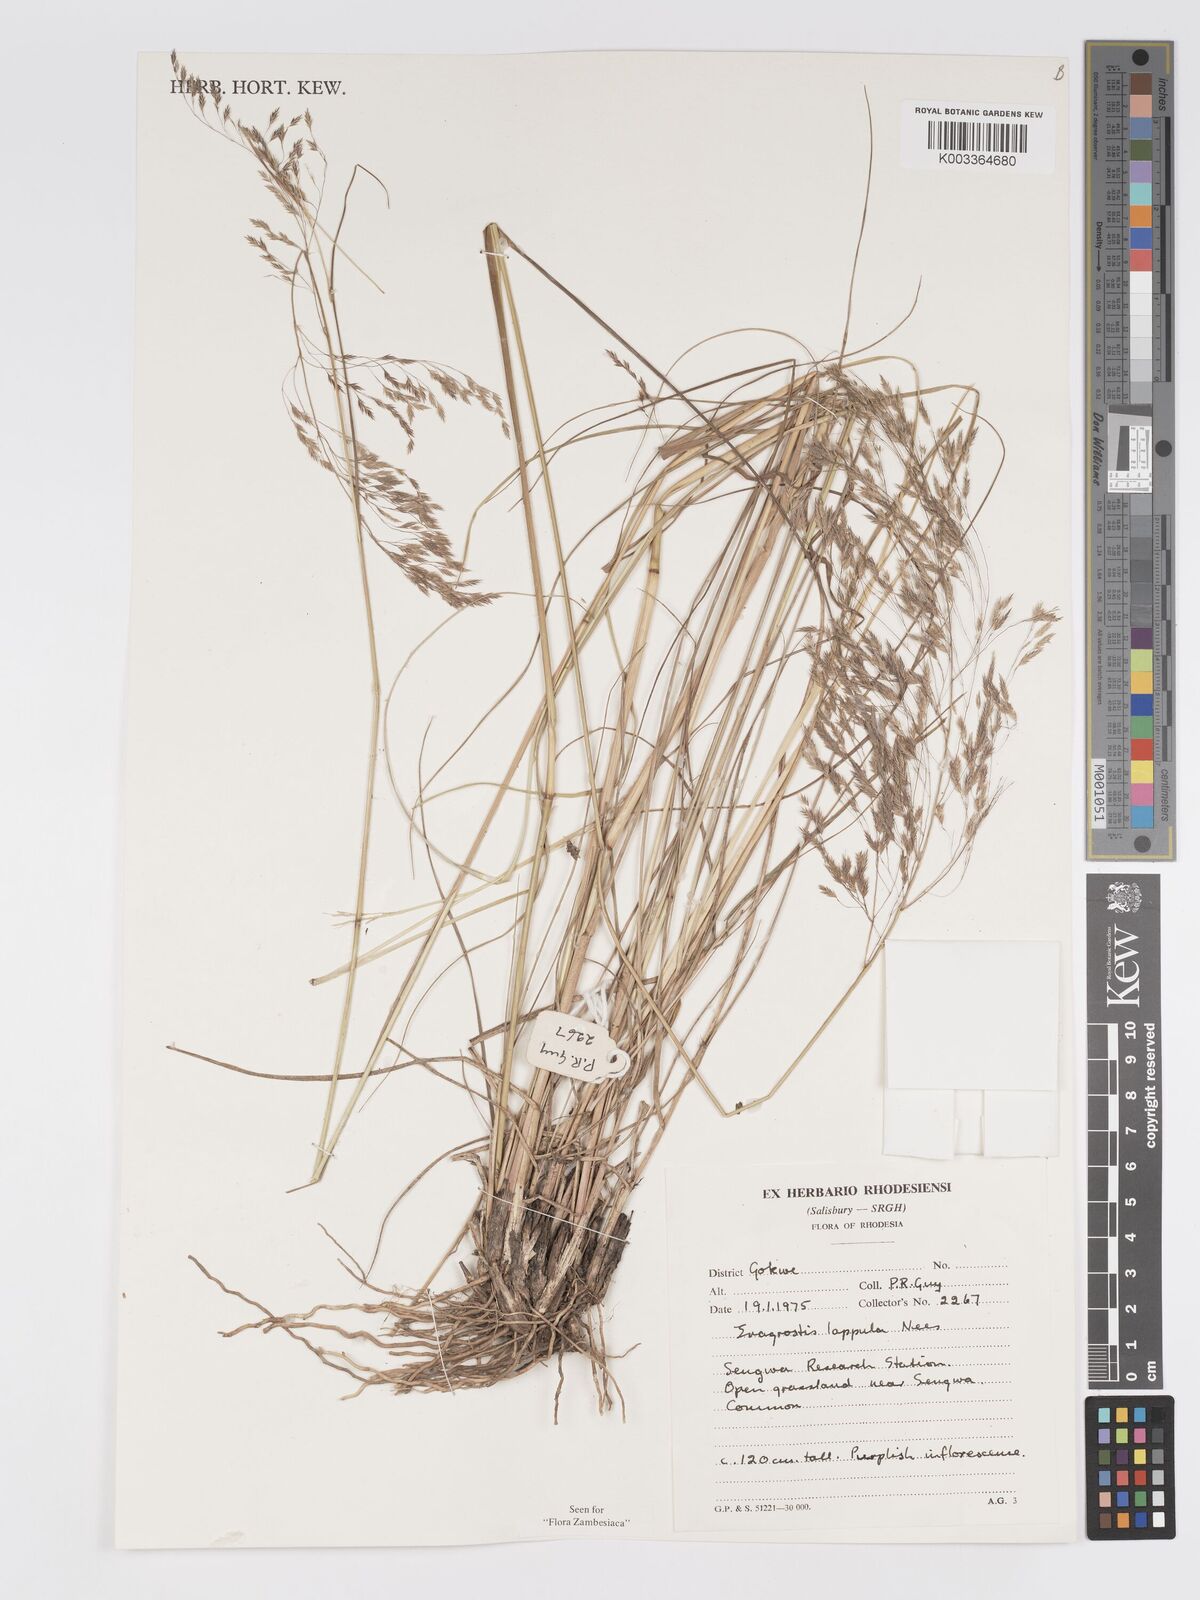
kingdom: Plantae
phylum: Tracheophyta
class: Liliopsida
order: Poales
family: Poaceae
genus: Eragrostis
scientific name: Eragrostis lappula
